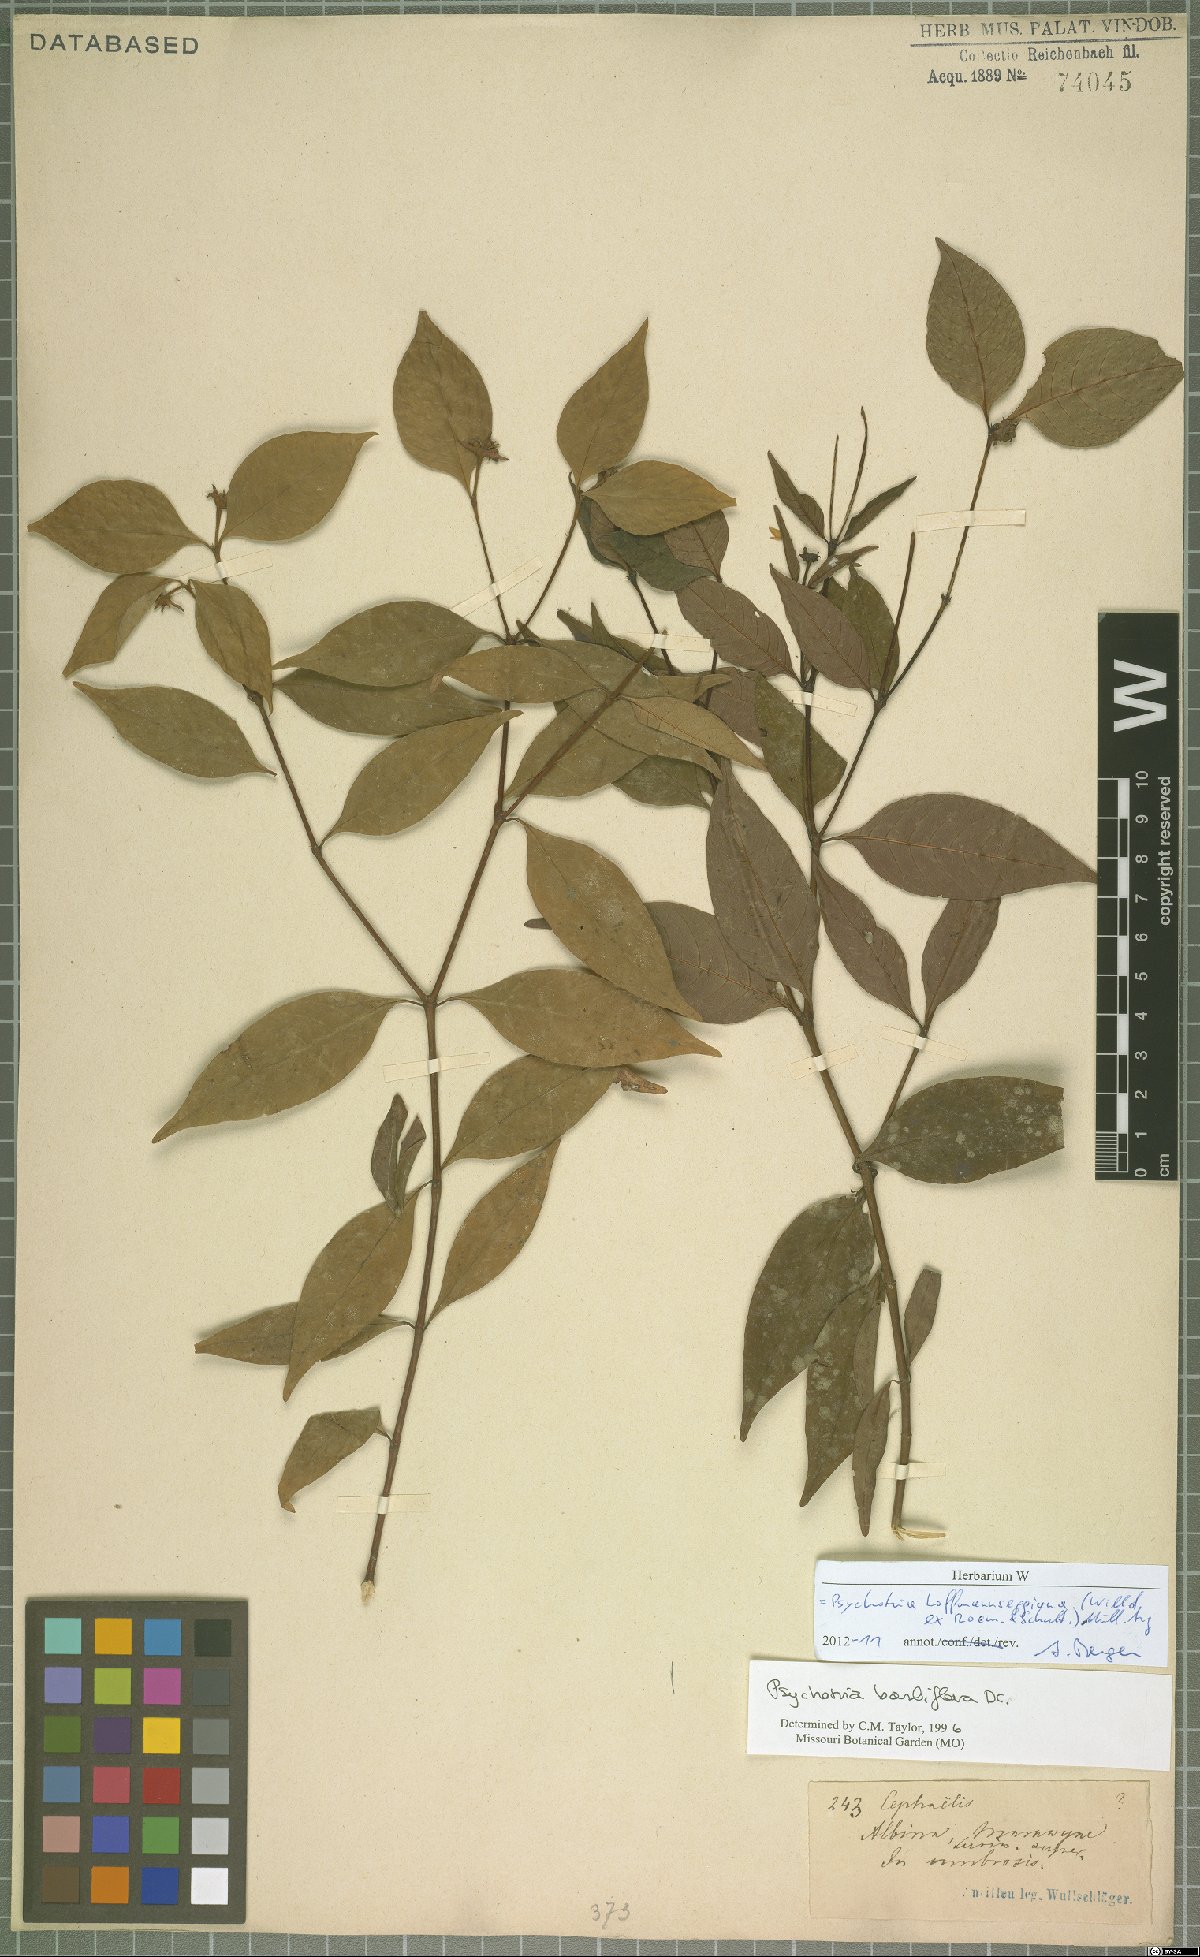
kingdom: Plantae
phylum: Tracheophyta
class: Magnoliopsida
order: Gentianales
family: Rubiaceae
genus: Palicourea
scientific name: Palicourea hoffmannseggiana
